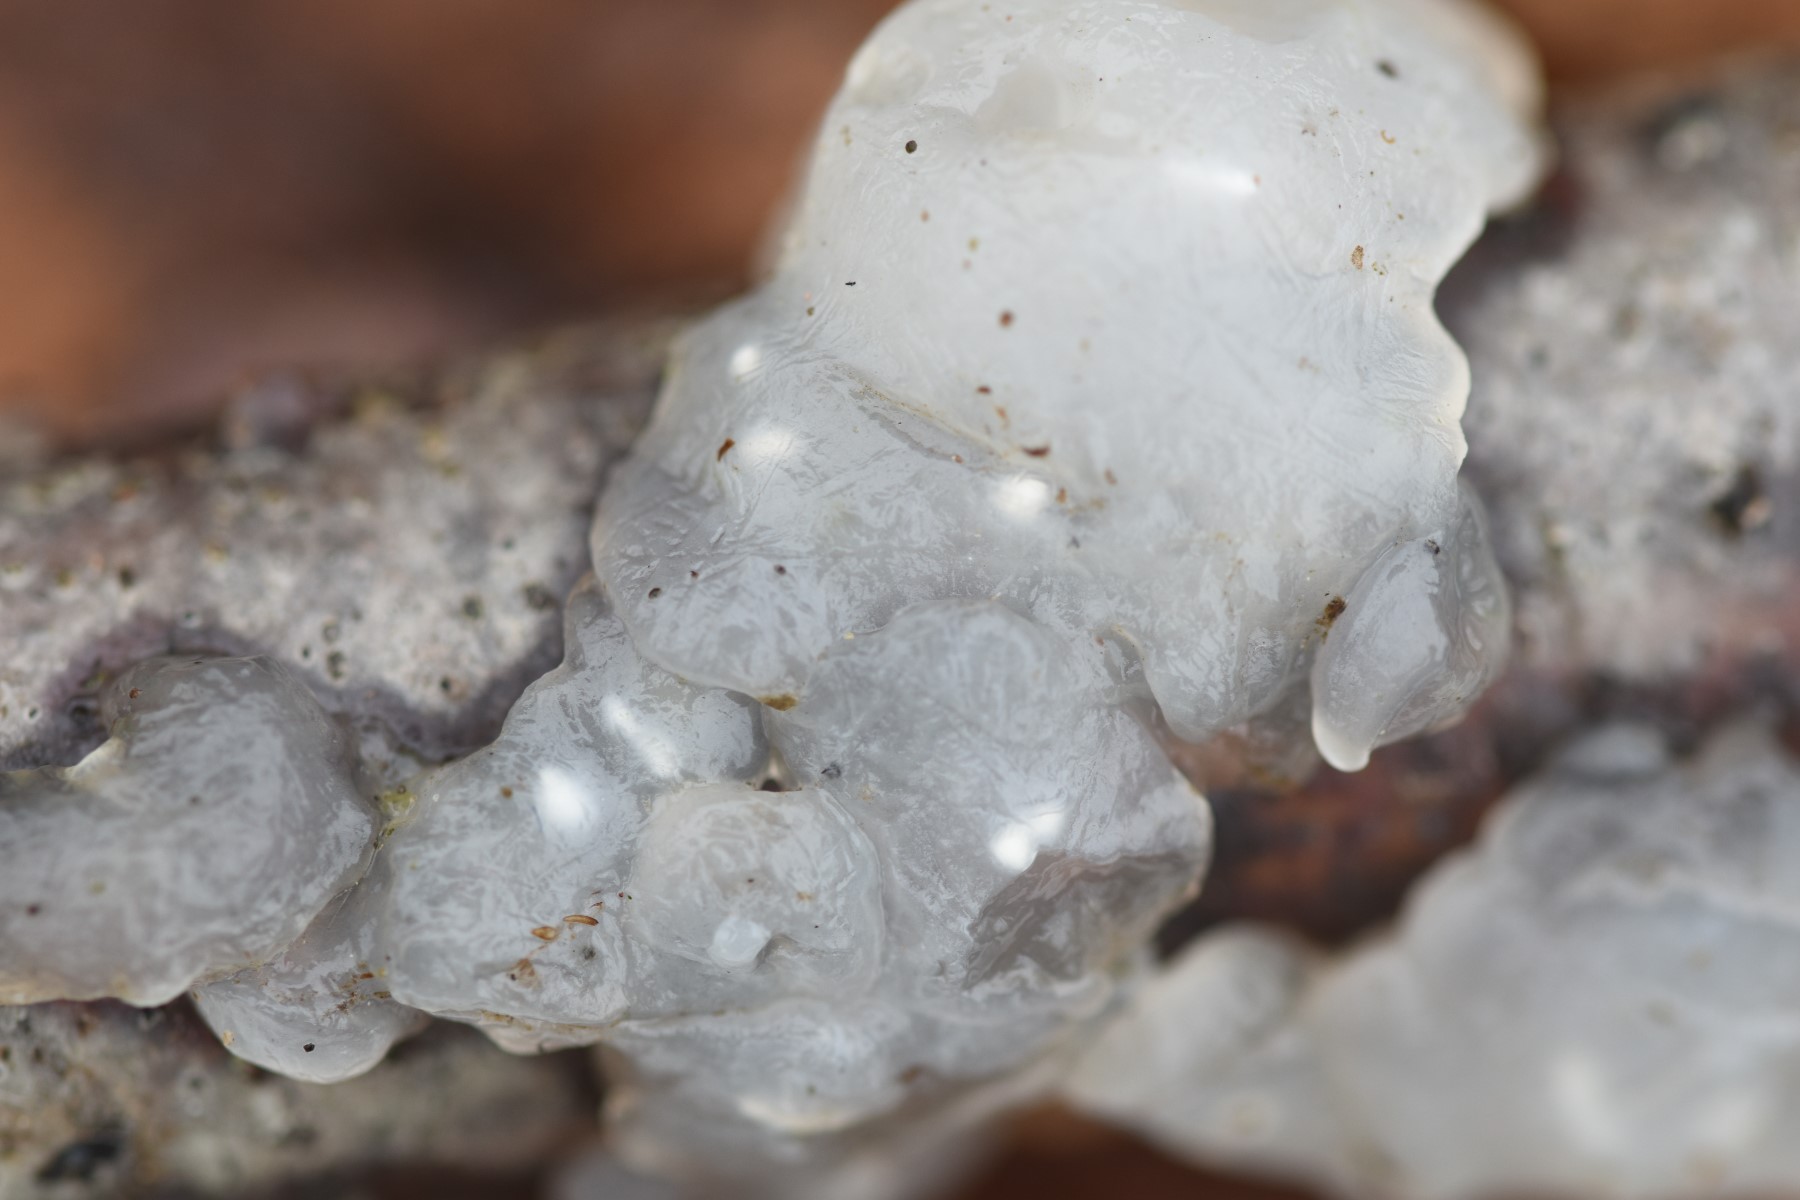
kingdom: Fungi
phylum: Basidiomycota
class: Agaricomycetes
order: Auriculariales
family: Hyaloriaceae
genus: Myxarium
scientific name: Myxarium nucleatum
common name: klar bævretop
